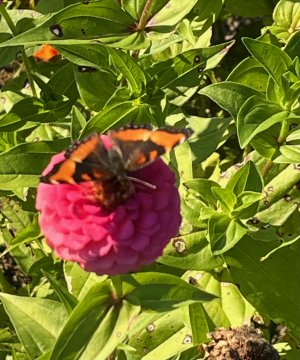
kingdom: Animalia
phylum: Arthropoda
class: Insecta
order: Lepidoptera
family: Nymphalidae
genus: Aglais
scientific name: Aglais milberti
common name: Milbert's Tortoiseshell
